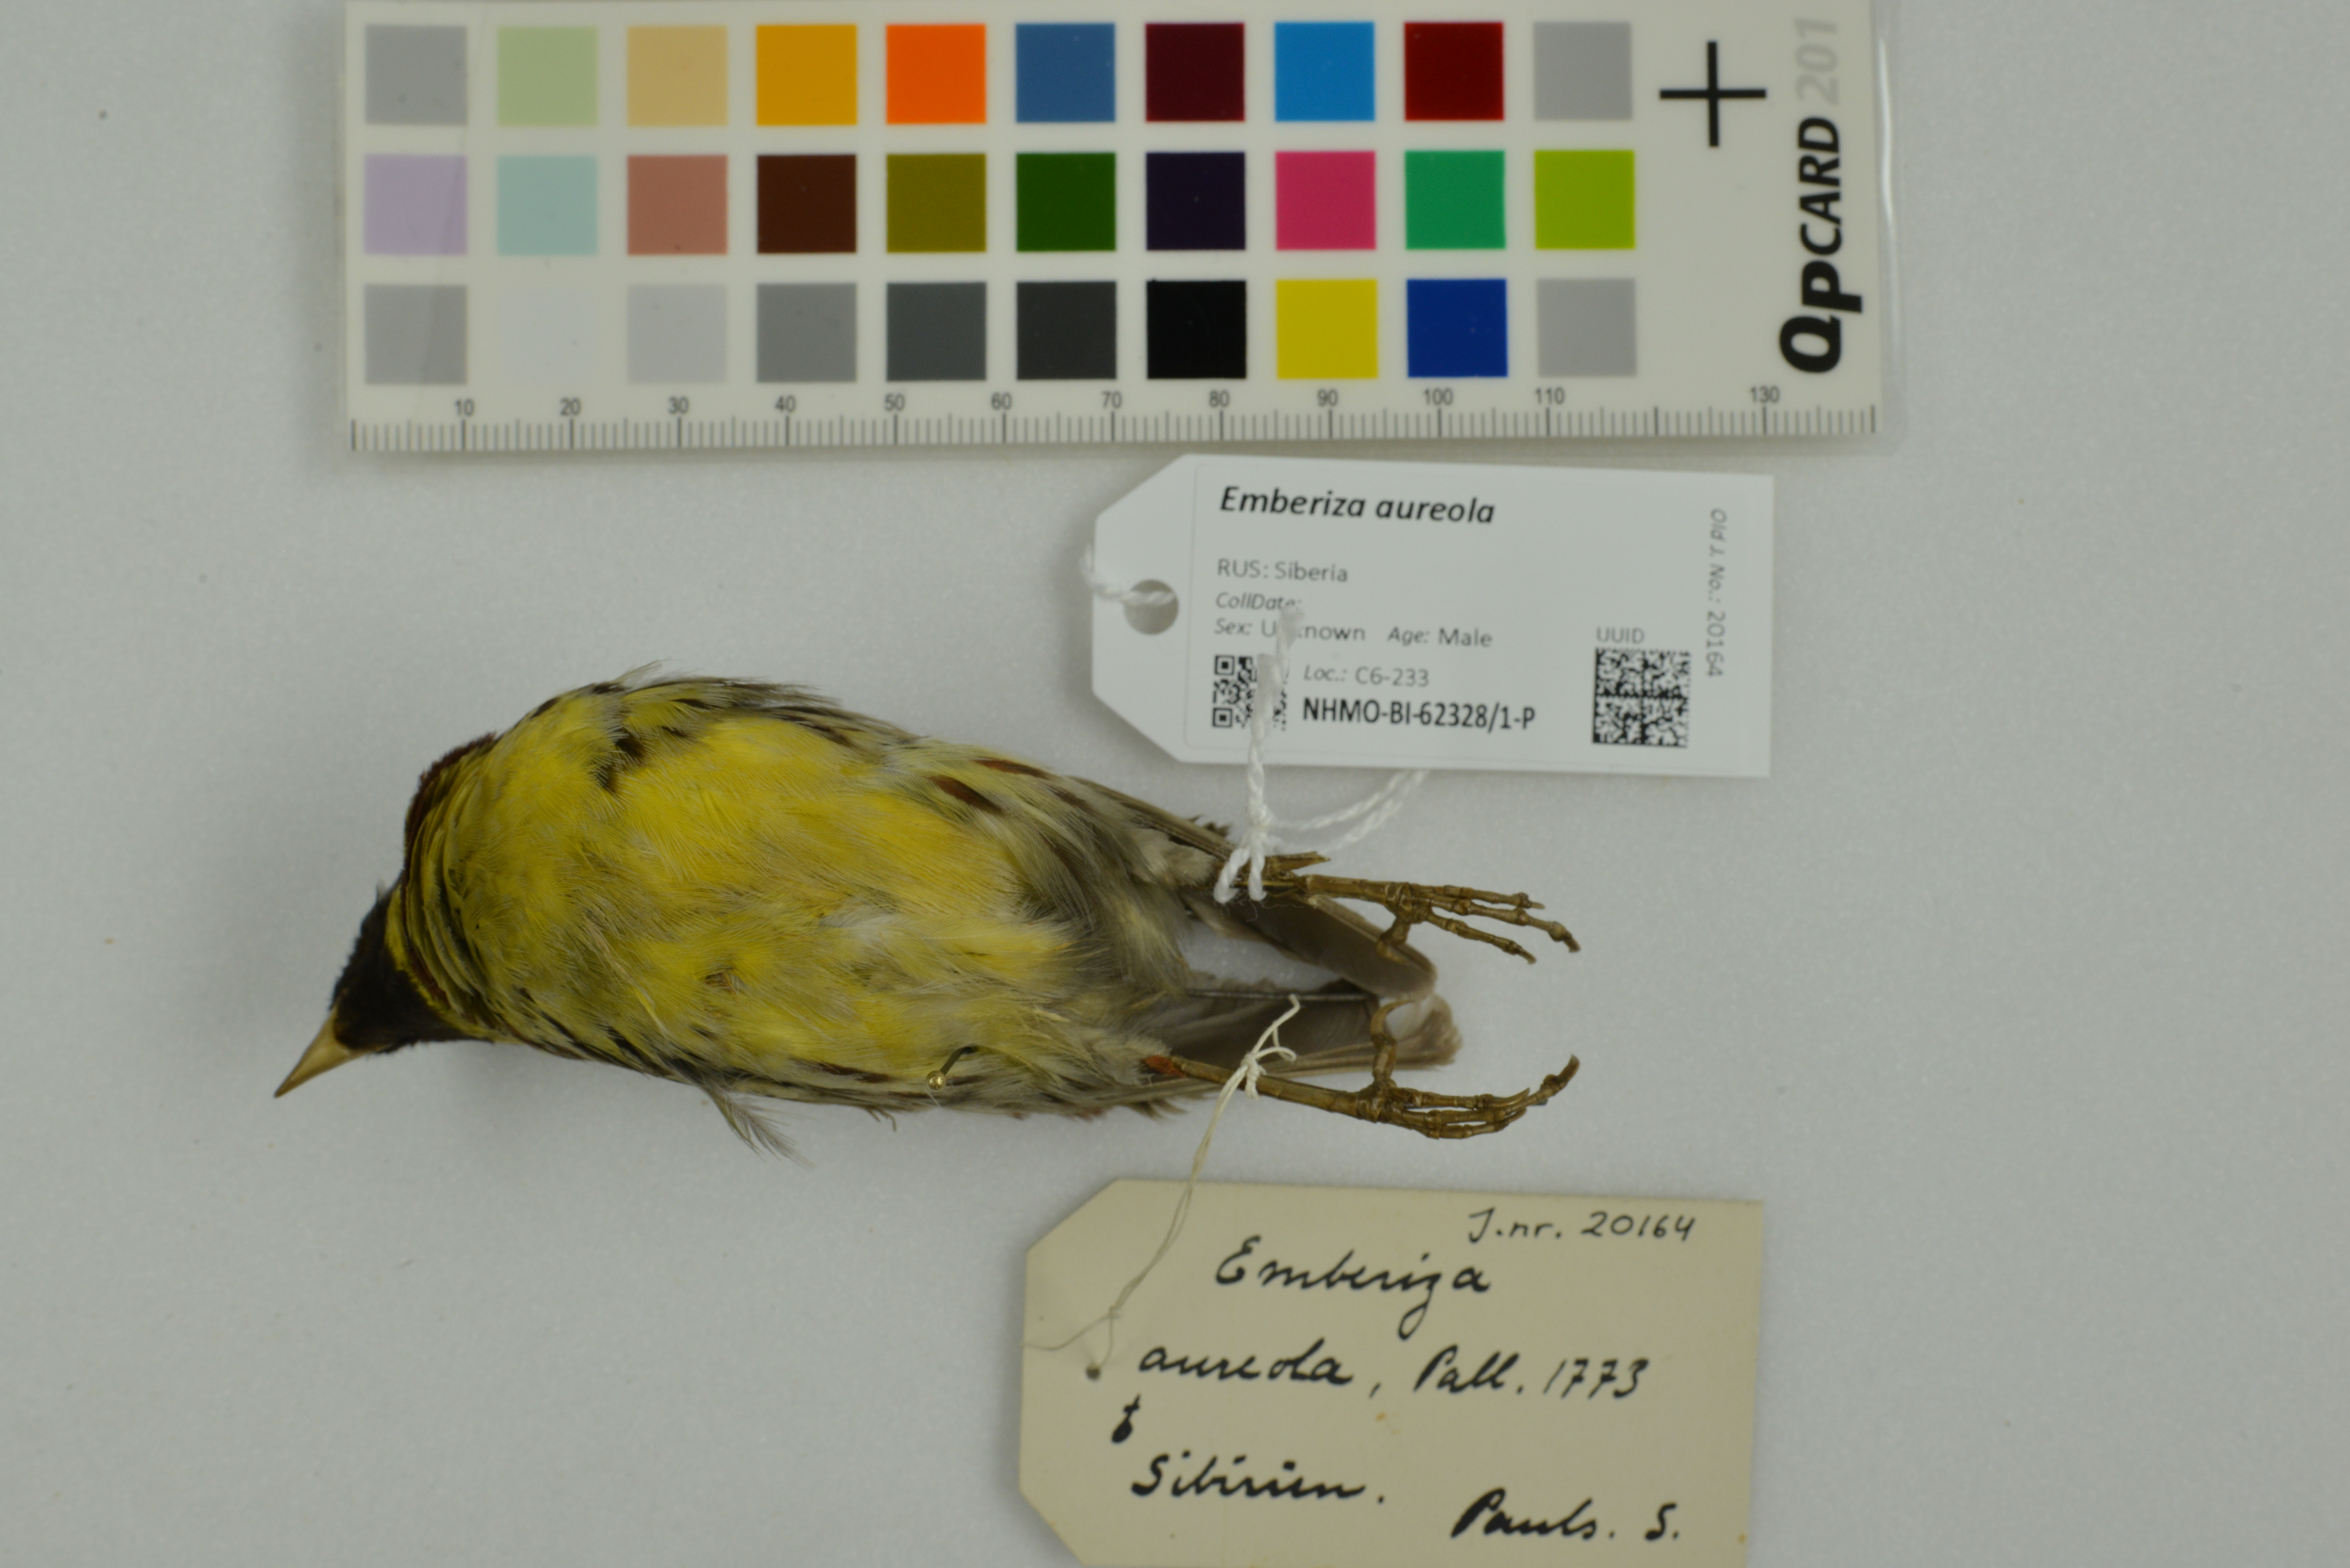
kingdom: Animalia
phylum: Chordata
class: Aves
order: Passeriformes
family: Emberizidae
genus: Emberiza
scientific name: Emberiza aureola
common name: Yellow-breasted bunting
